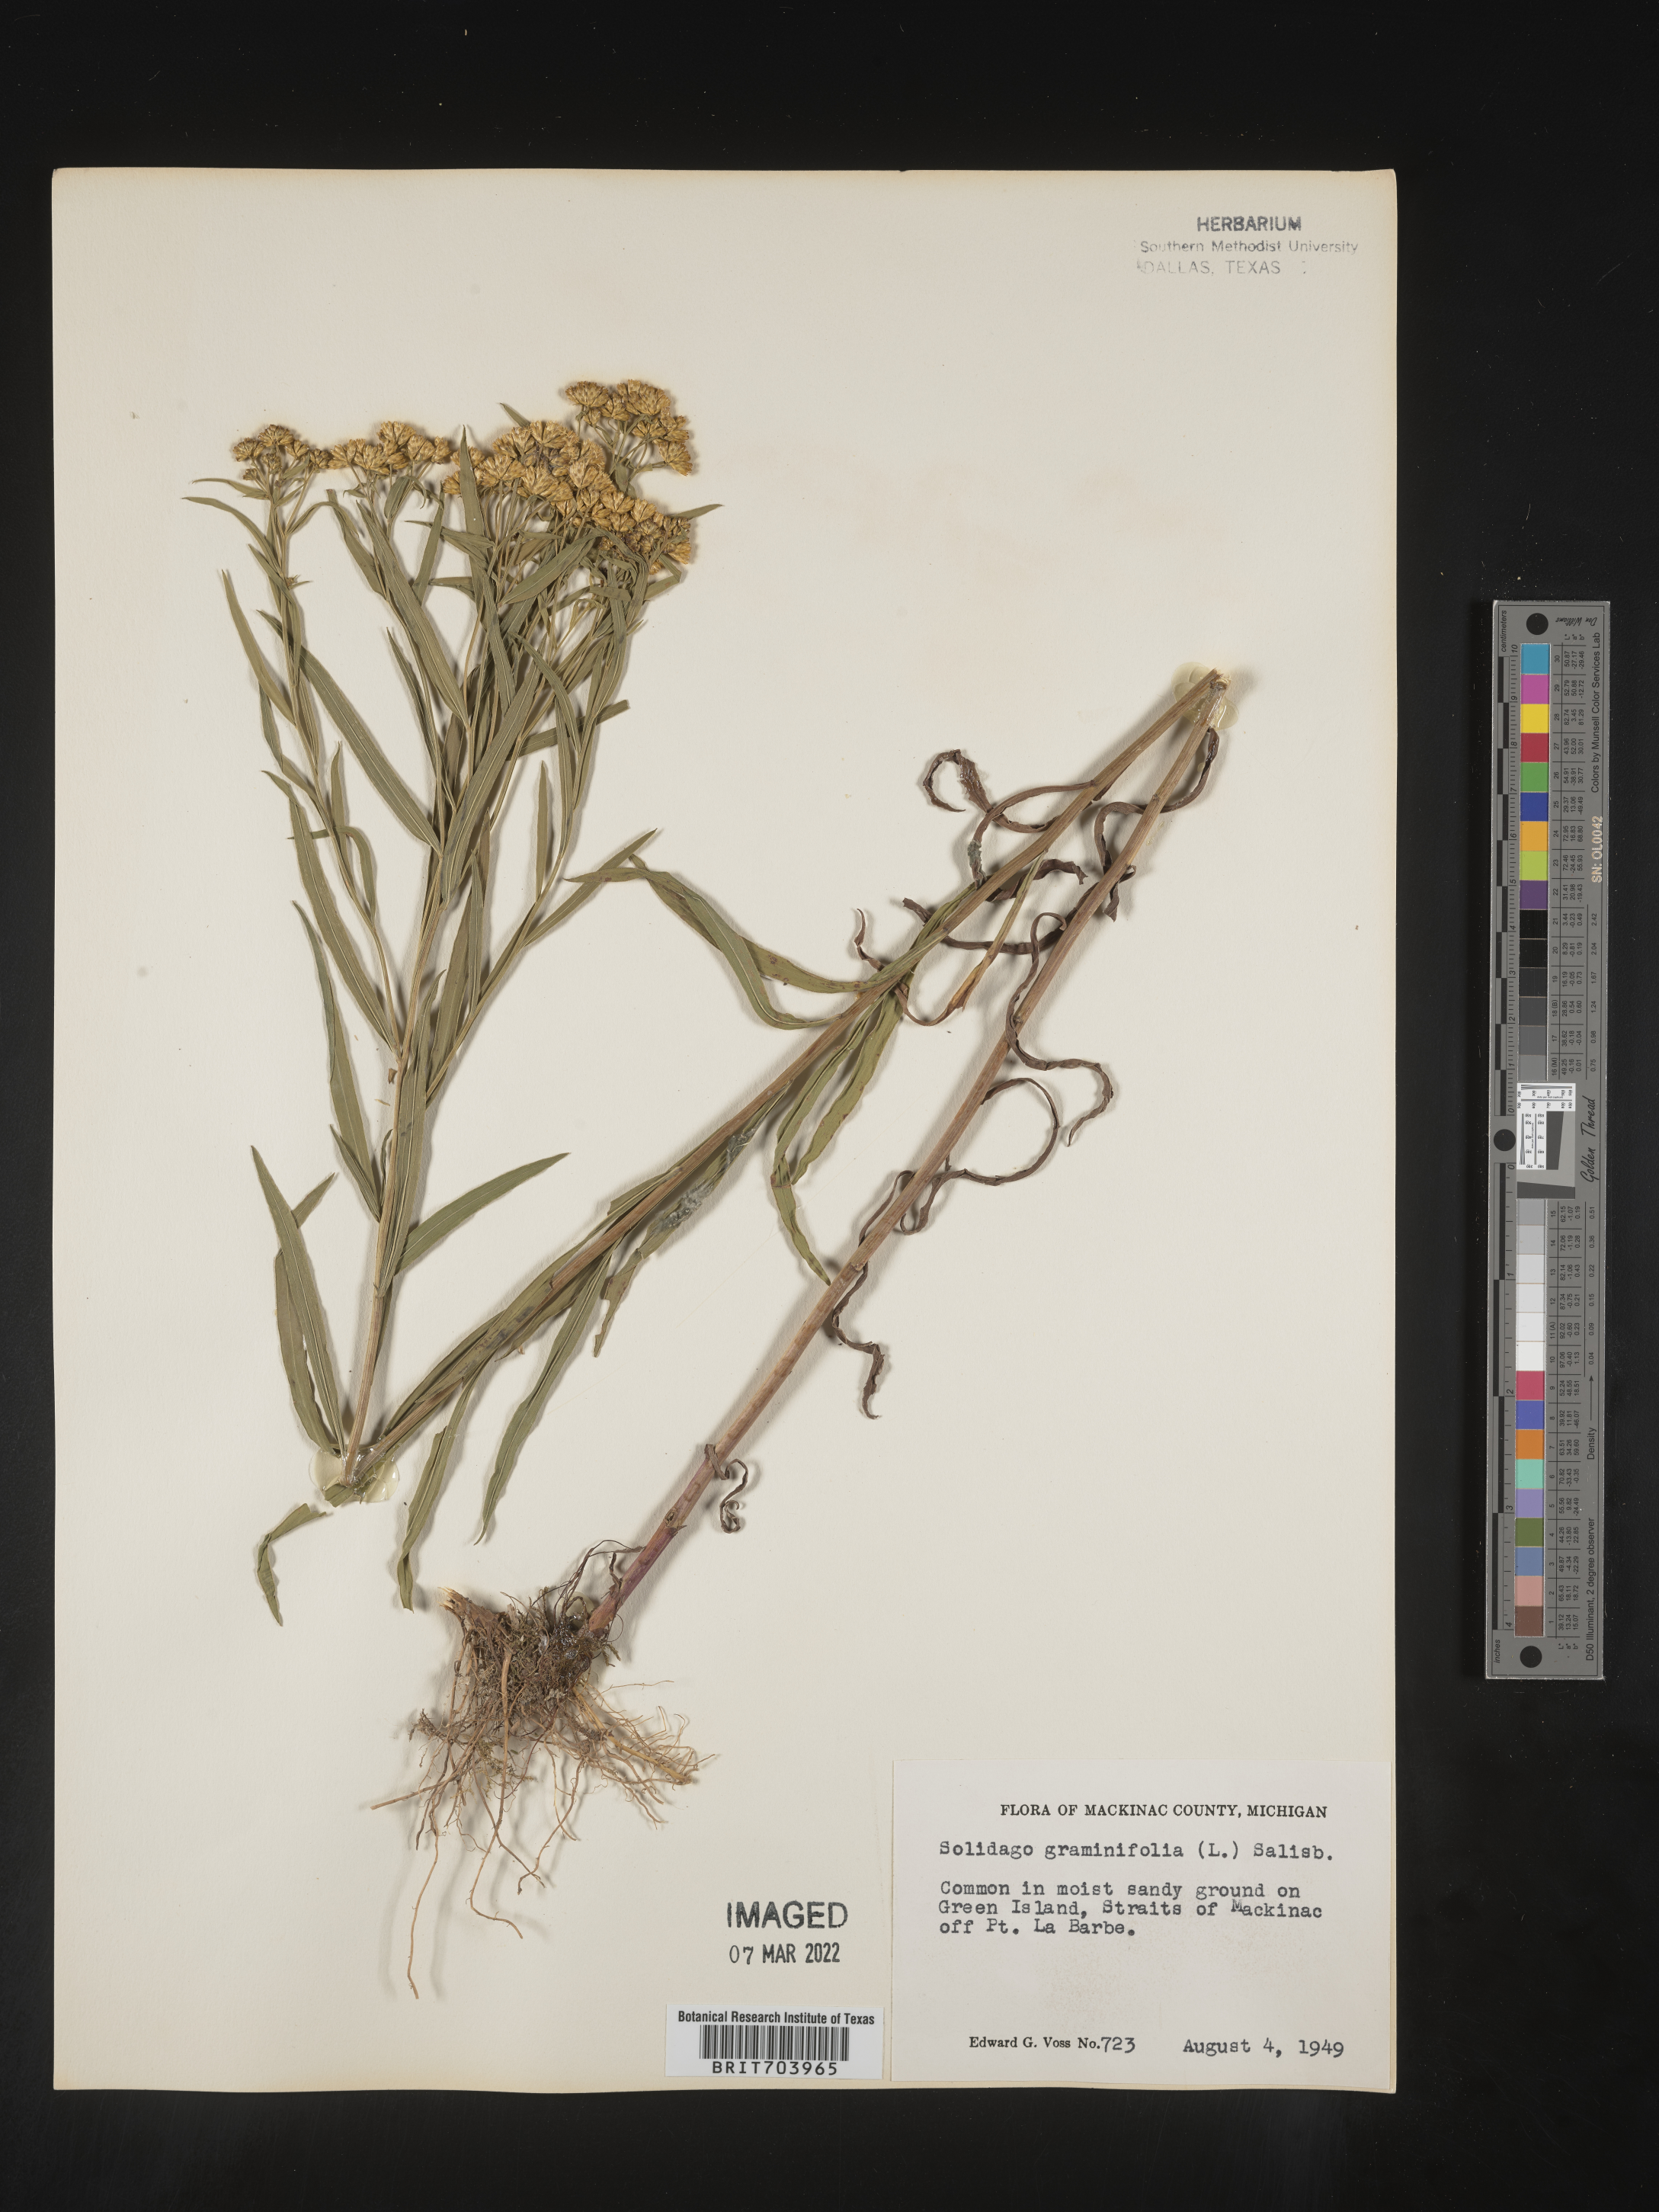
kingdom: Plantae
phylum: Tracheophyta
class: Magnoliopsida
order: Asterales
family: Asteraceae
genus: Euthamia
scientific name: Euthamia graminifolia
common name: Common goldentop
